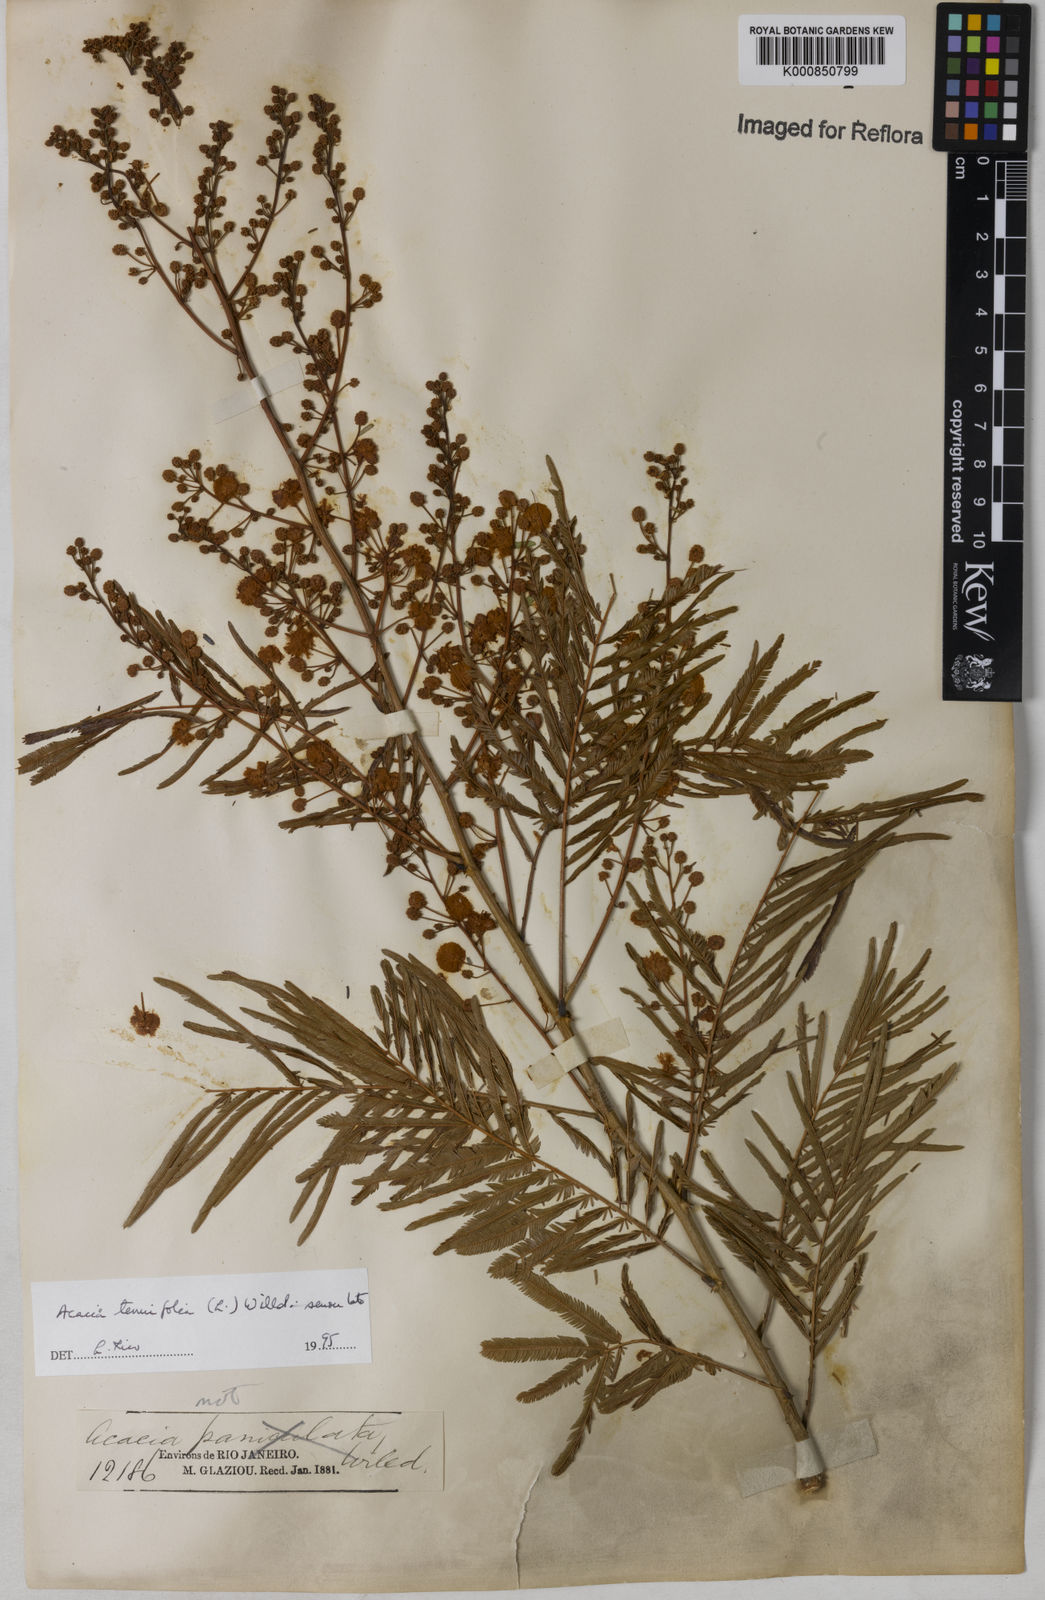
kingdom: Plantae
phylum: Tracheophyta
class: Magnoliopsida
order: Fabales
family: Fabaceae
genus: Senegalia
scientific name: Senegalia tenuifolia
